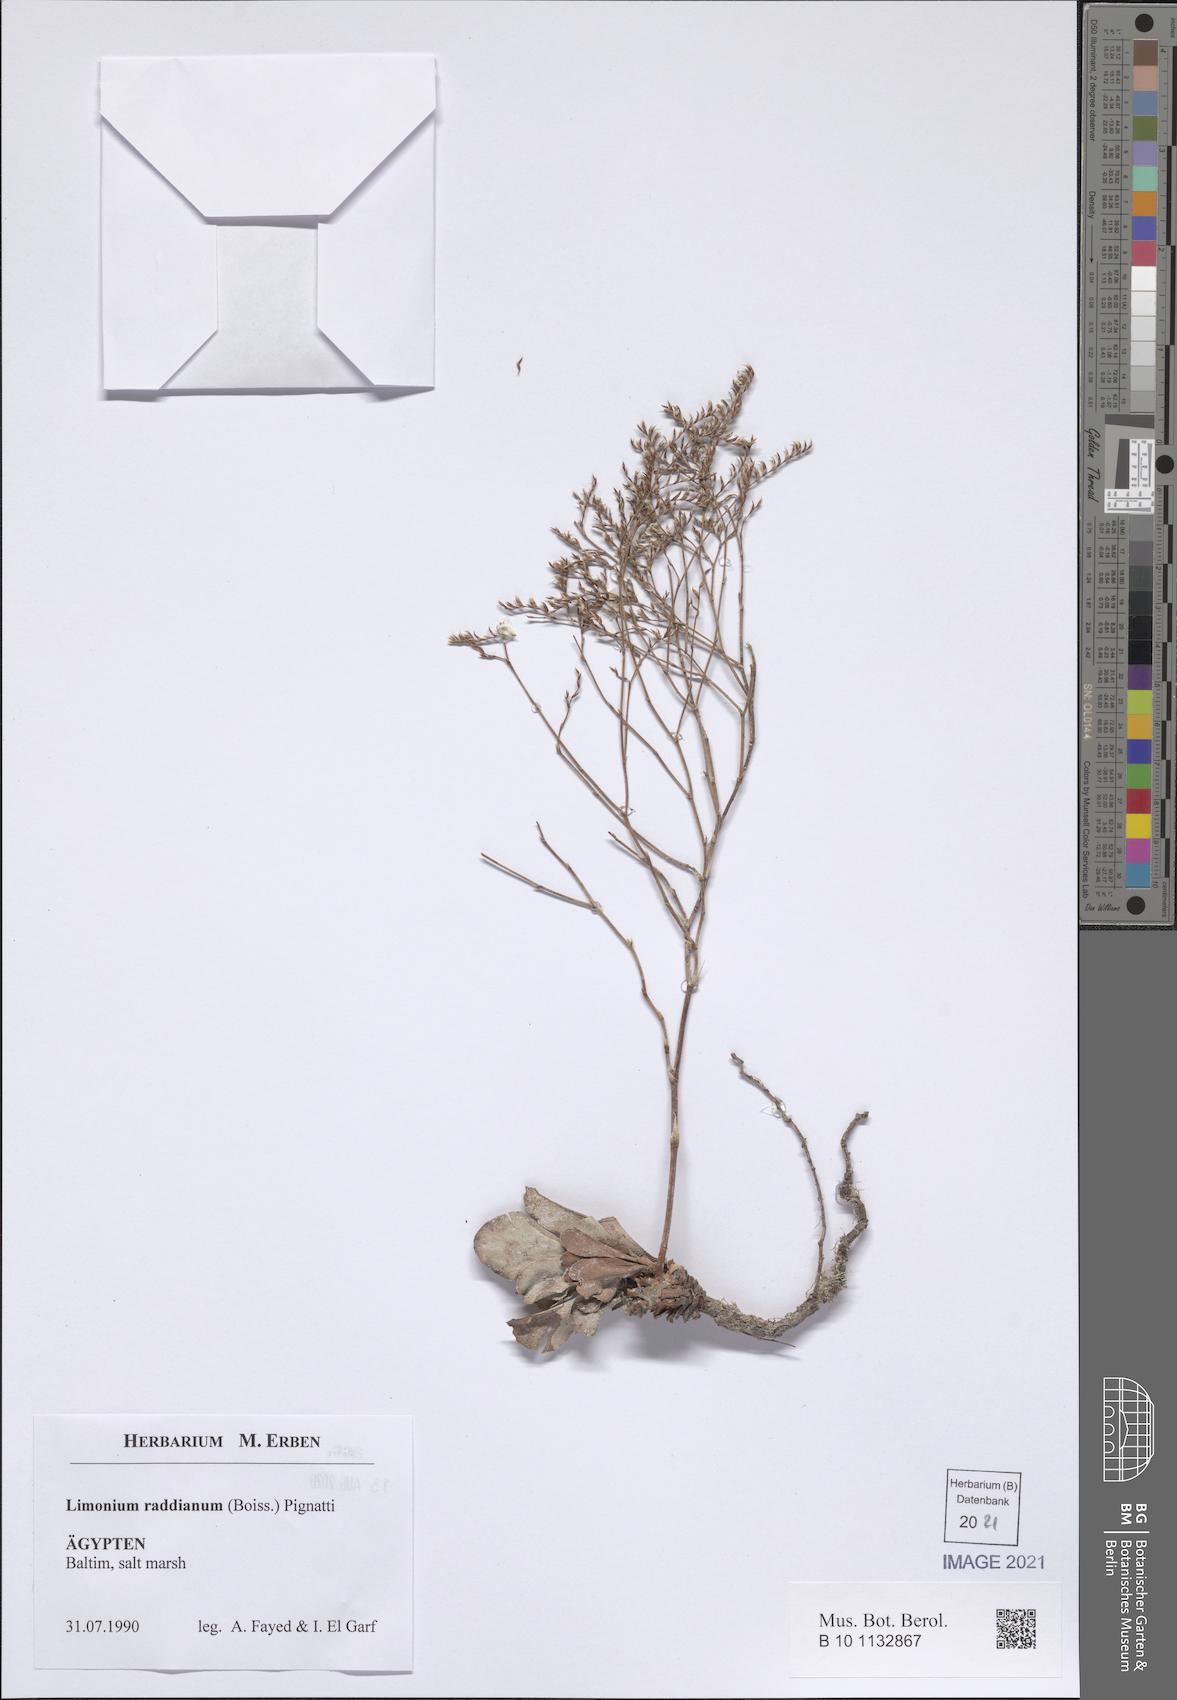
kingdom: Plantae
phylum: Tracheophyta
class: Magnoliopsida
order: Caryophyllales
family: Plumbaginaceae
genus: Limonium
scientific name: Limonium raddianum
